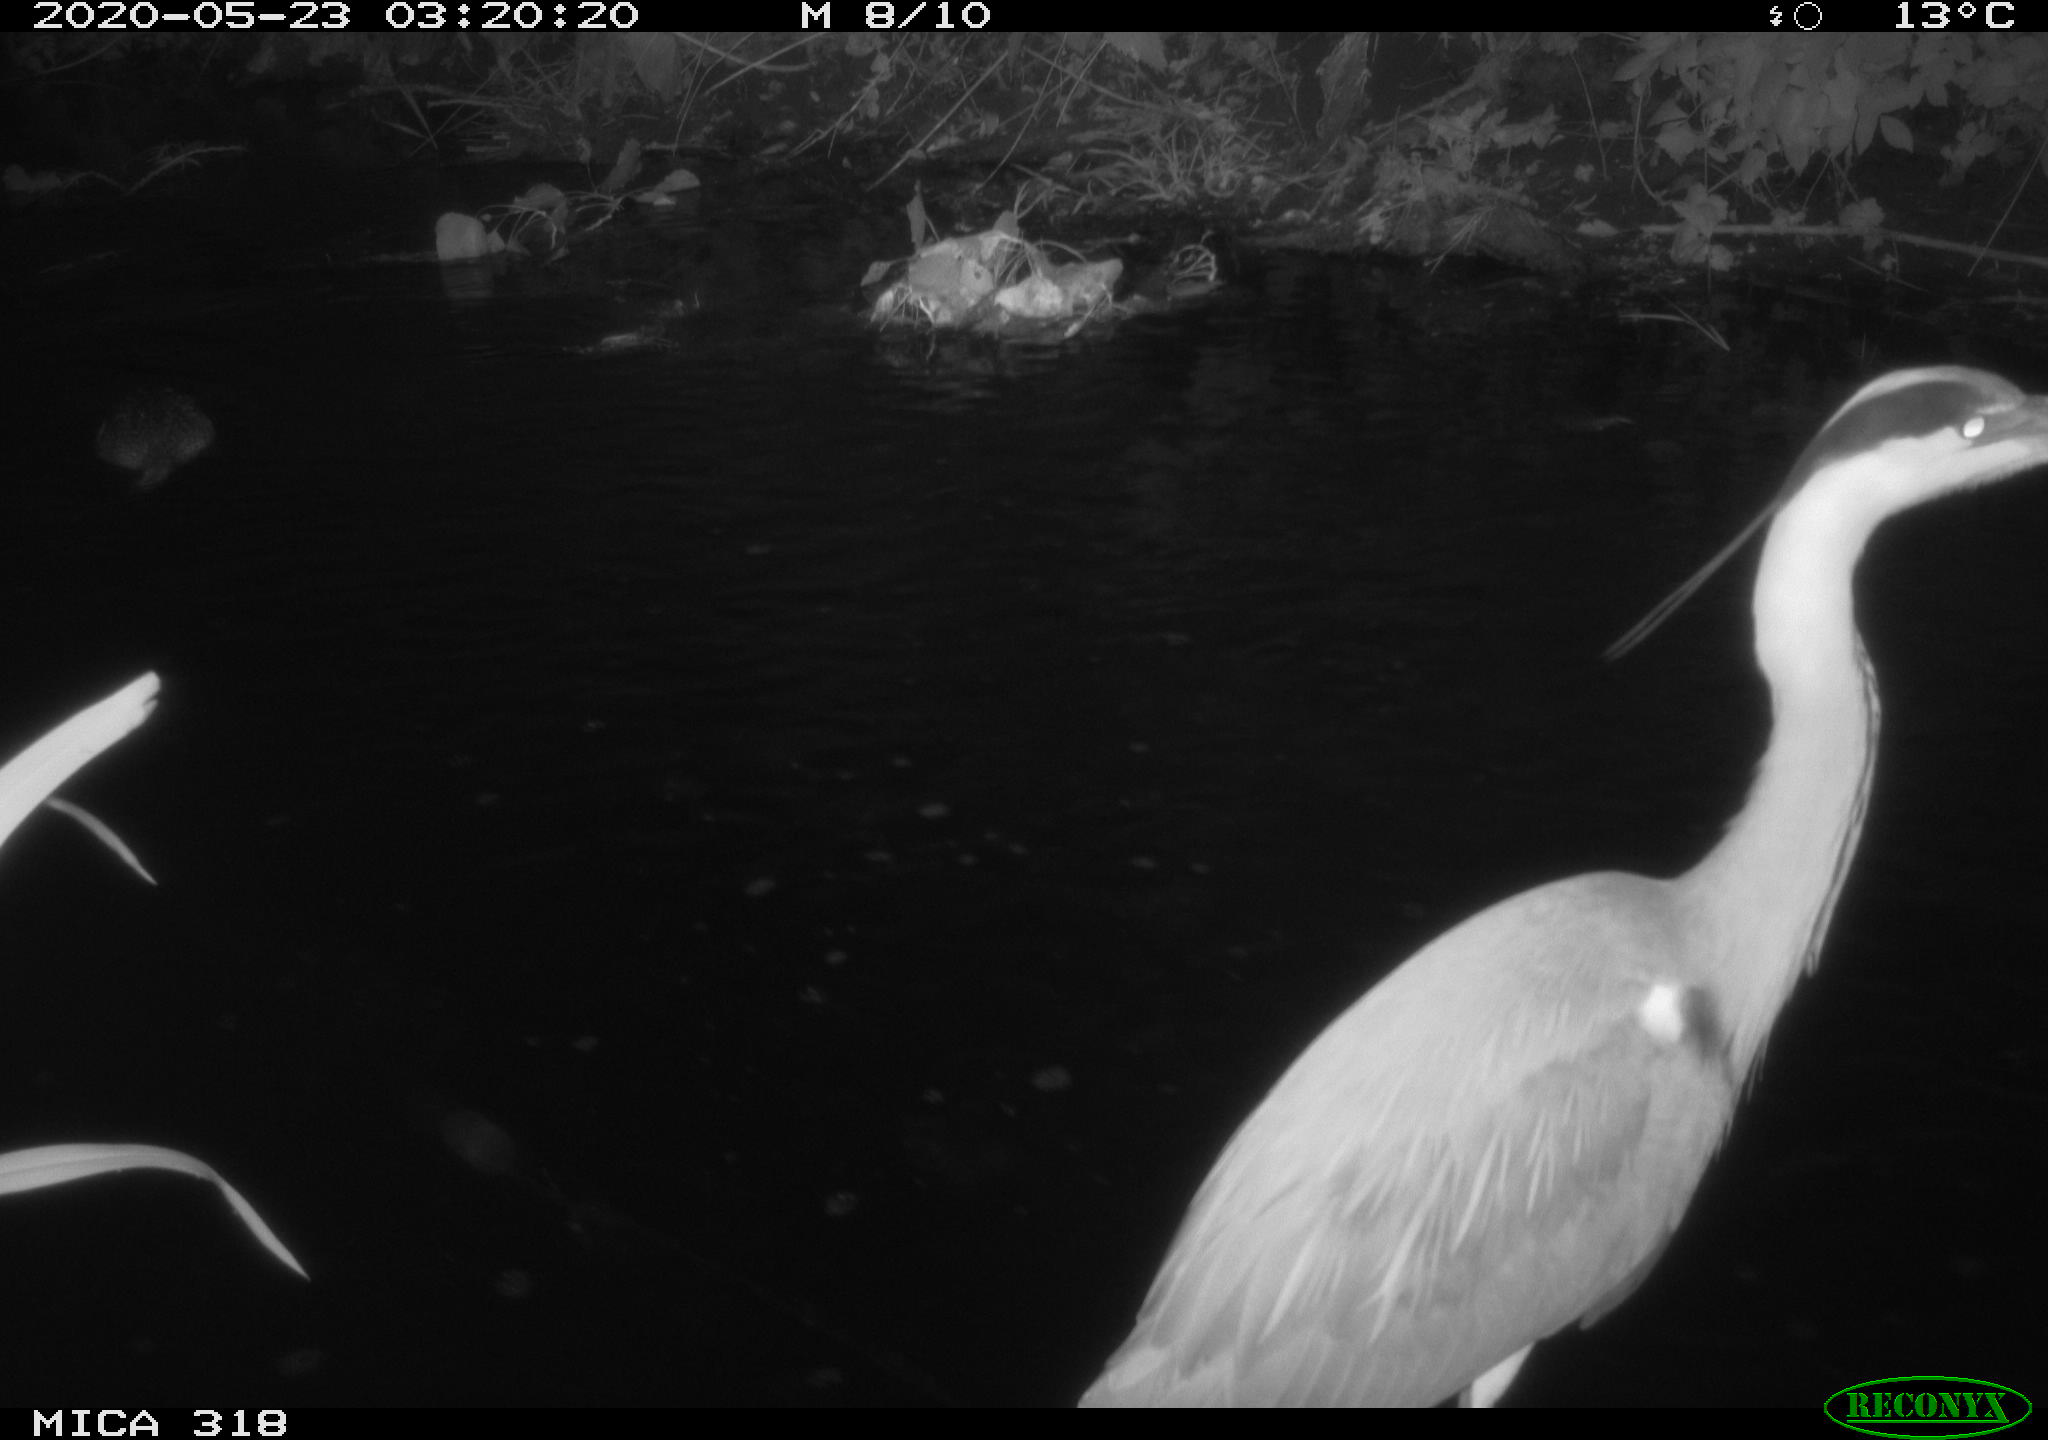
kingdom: Animalia
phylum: Chordata
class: Aves
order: Pelecaniformes
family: Ardeidae
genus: Ardea
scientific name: Ardea cinerea
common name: Grey heron
